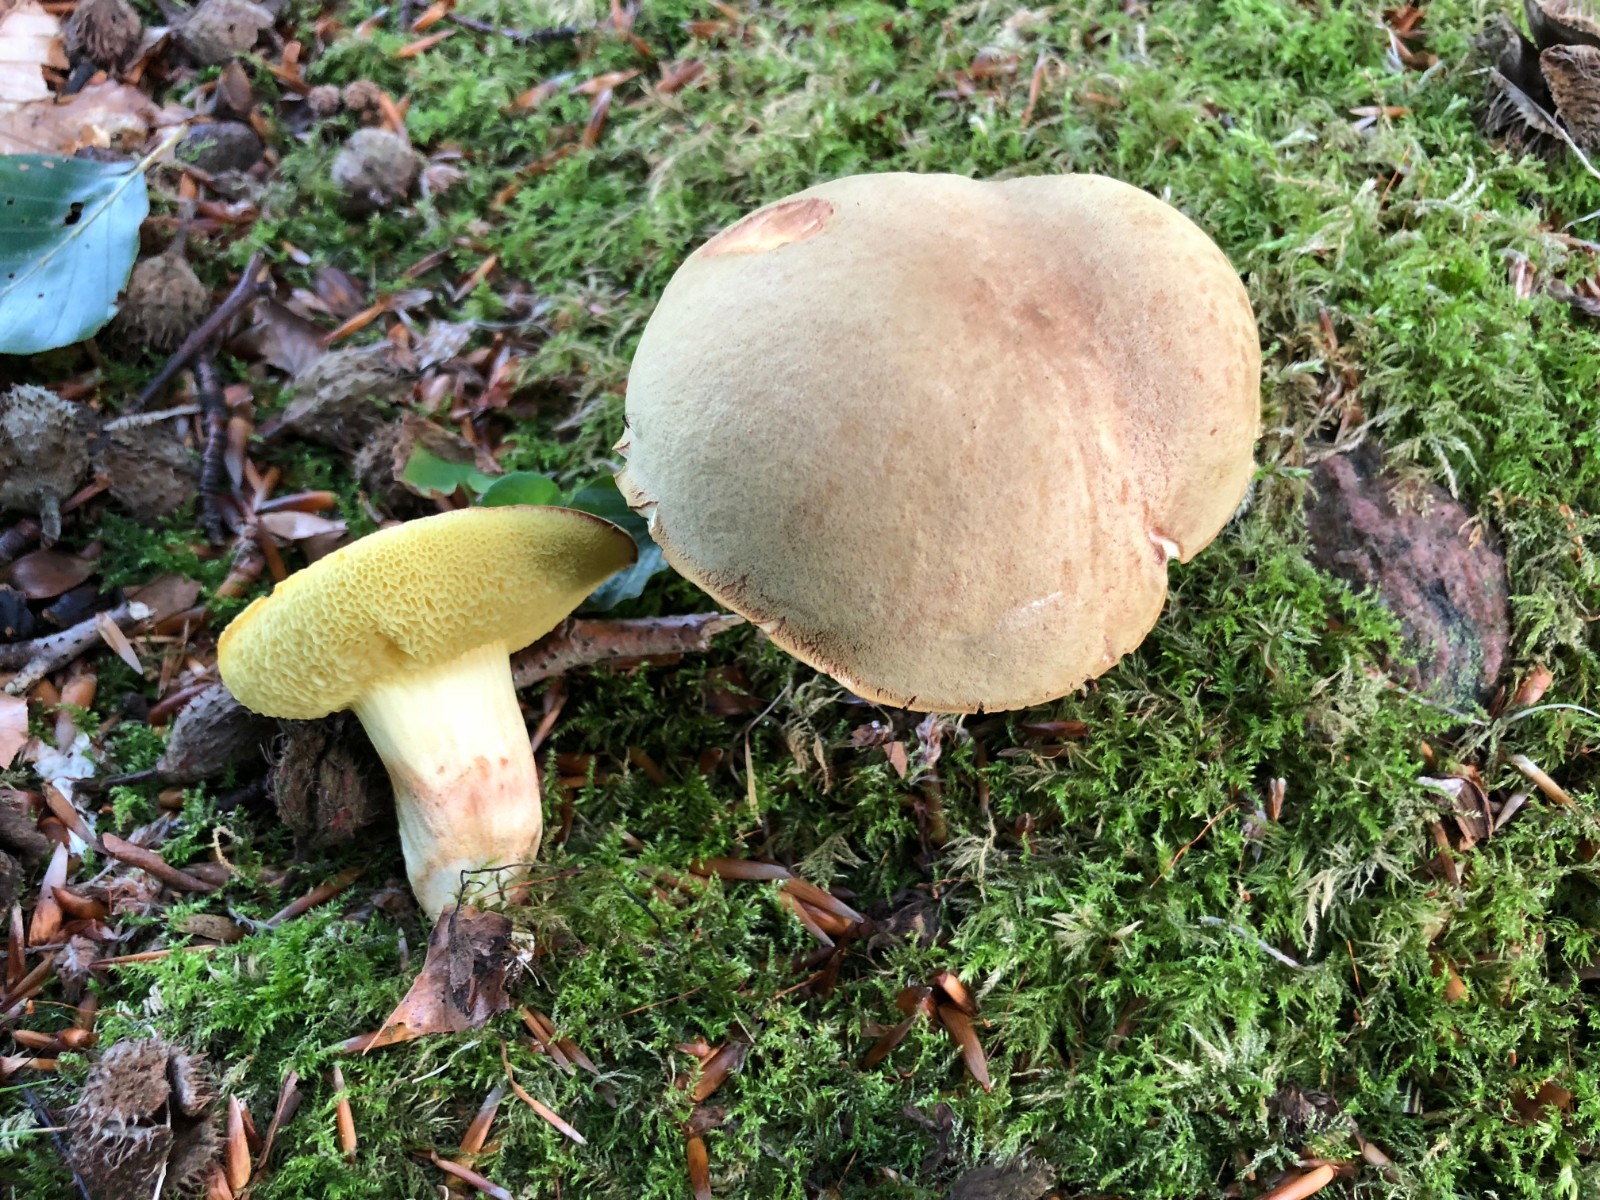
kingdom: Fungi
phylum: Basidiomycota
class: Agaricomycetes
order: Boletales
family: Boletaceae
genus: Xerocomus
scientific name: Xerocomus subtomentosus
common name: filtet rørhat
